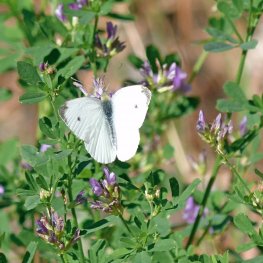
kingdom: Animalia
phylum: Arthropoda
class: Insecta
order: Lepidoptera
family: Pieridae
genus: Pieris
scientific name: Pieris rapae
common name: Cabbage White
